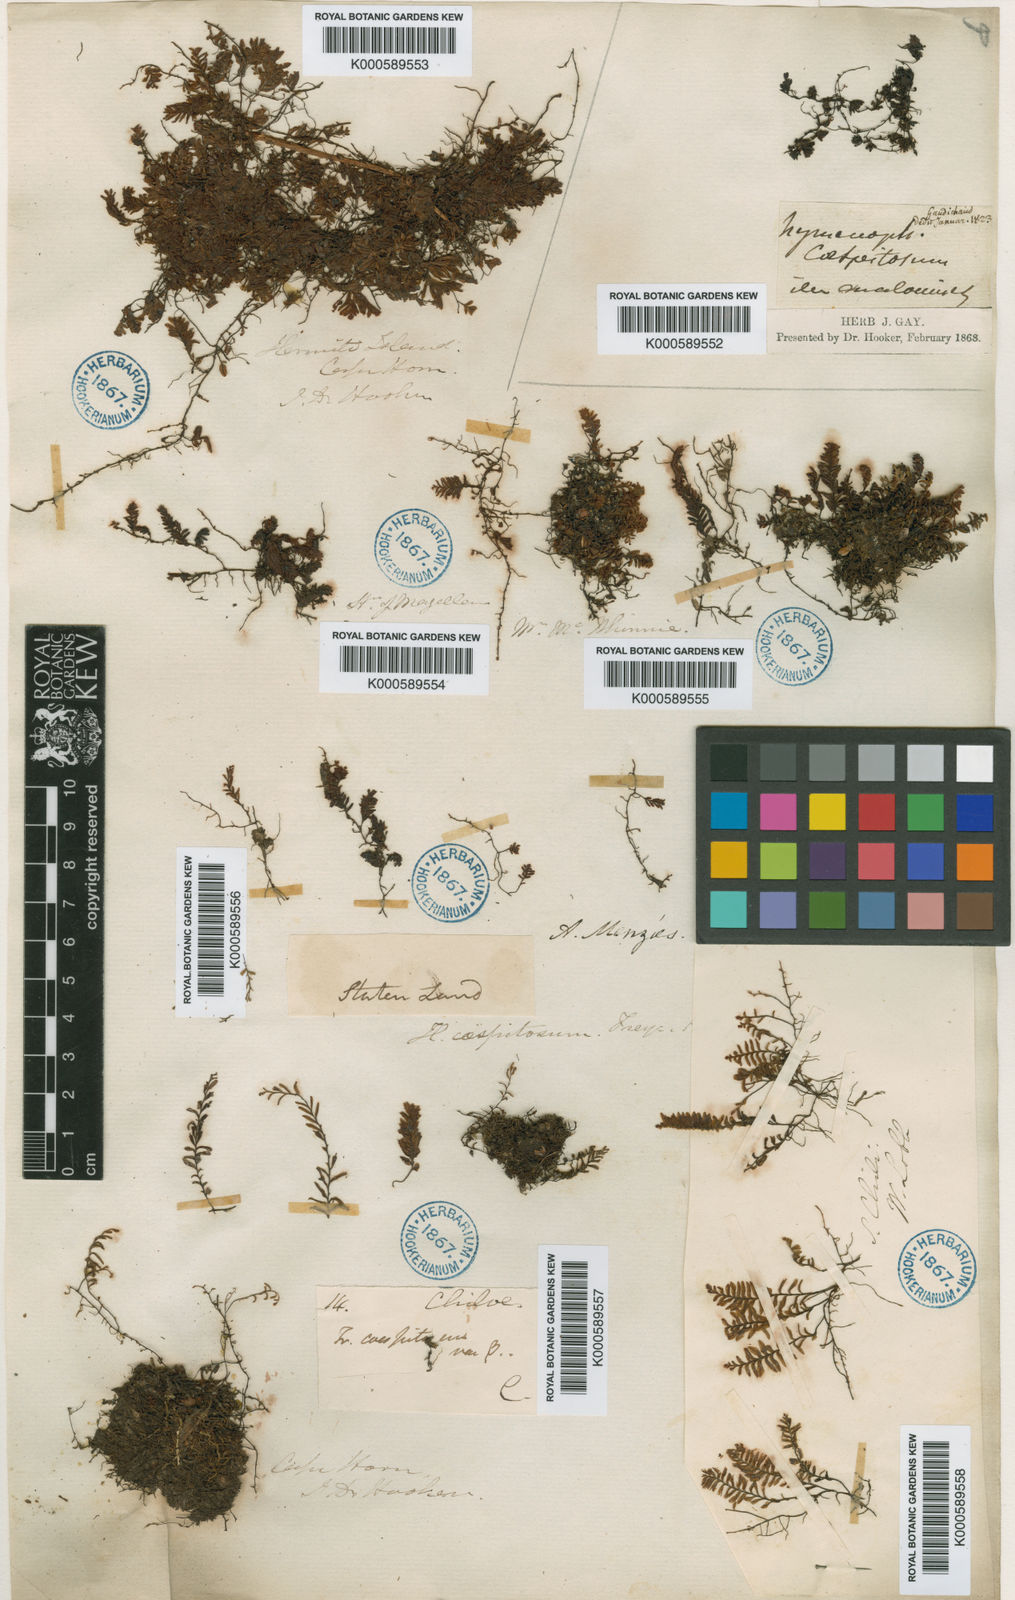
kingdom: Plantae
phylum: Tracheophyta
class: Polypodiopsida
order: Hymenophyllales
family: Hymenophyllaceae
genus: Hymenophyllum
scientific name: Hymenophyllum caespitosum
